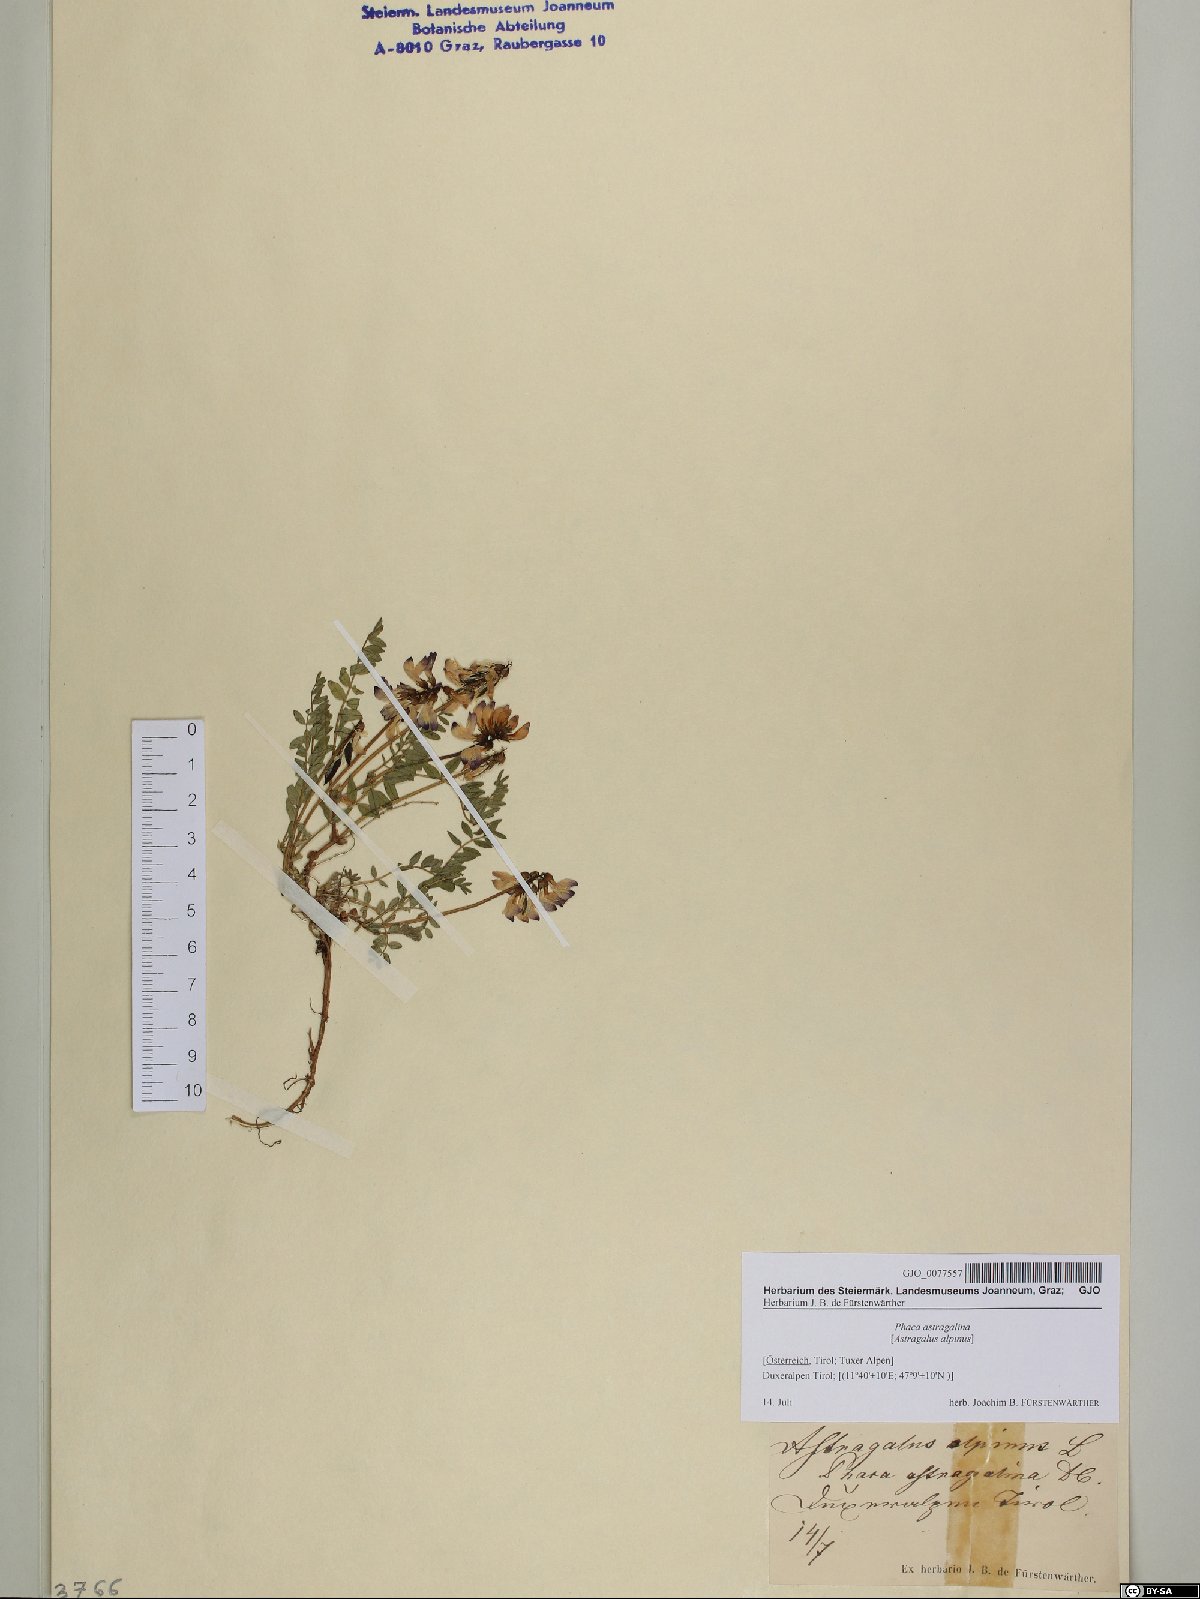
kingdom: Plantae
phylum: Tracheophyta
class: Magnoliopsida
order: Fabales
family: Fabaceae
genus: Astragalus
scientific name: Astragalus alpinus
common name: Alpine milk-vetch
